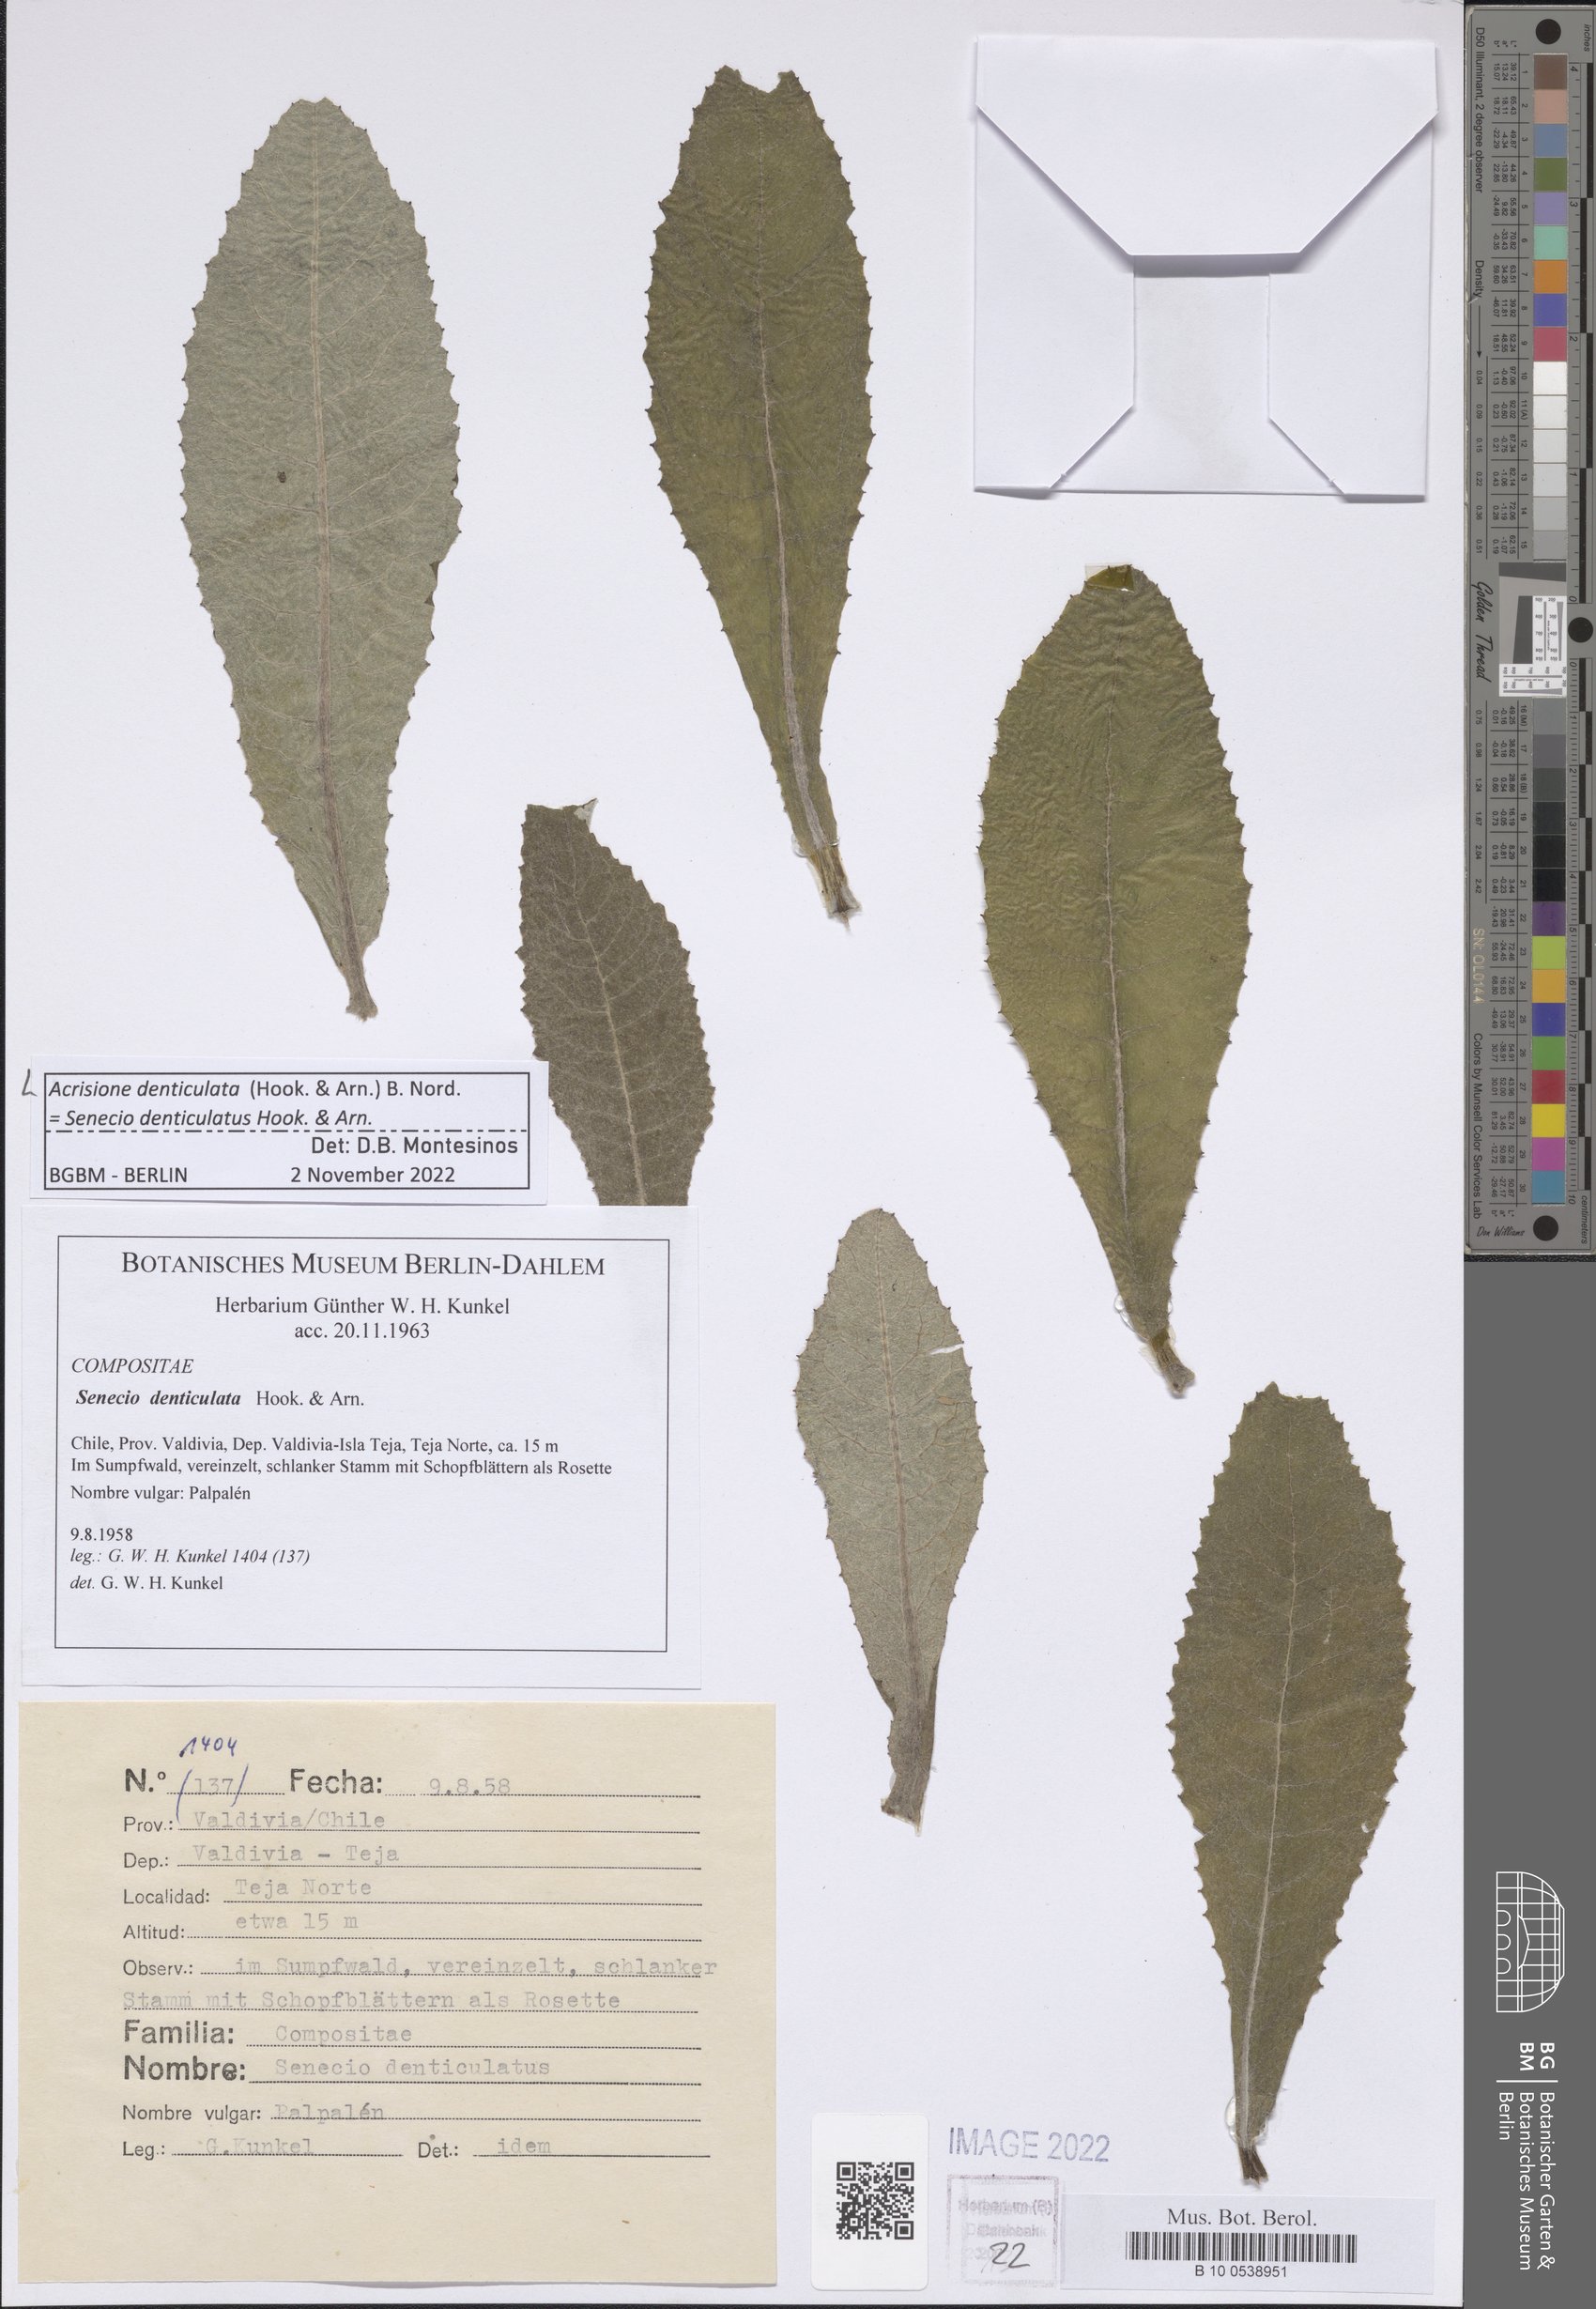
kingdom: Plantae
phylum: Tracheophyta
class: Magnoliopsida
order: Asterales
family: Asteraceae
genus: Acrisione
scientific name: Acrisione denticulata
